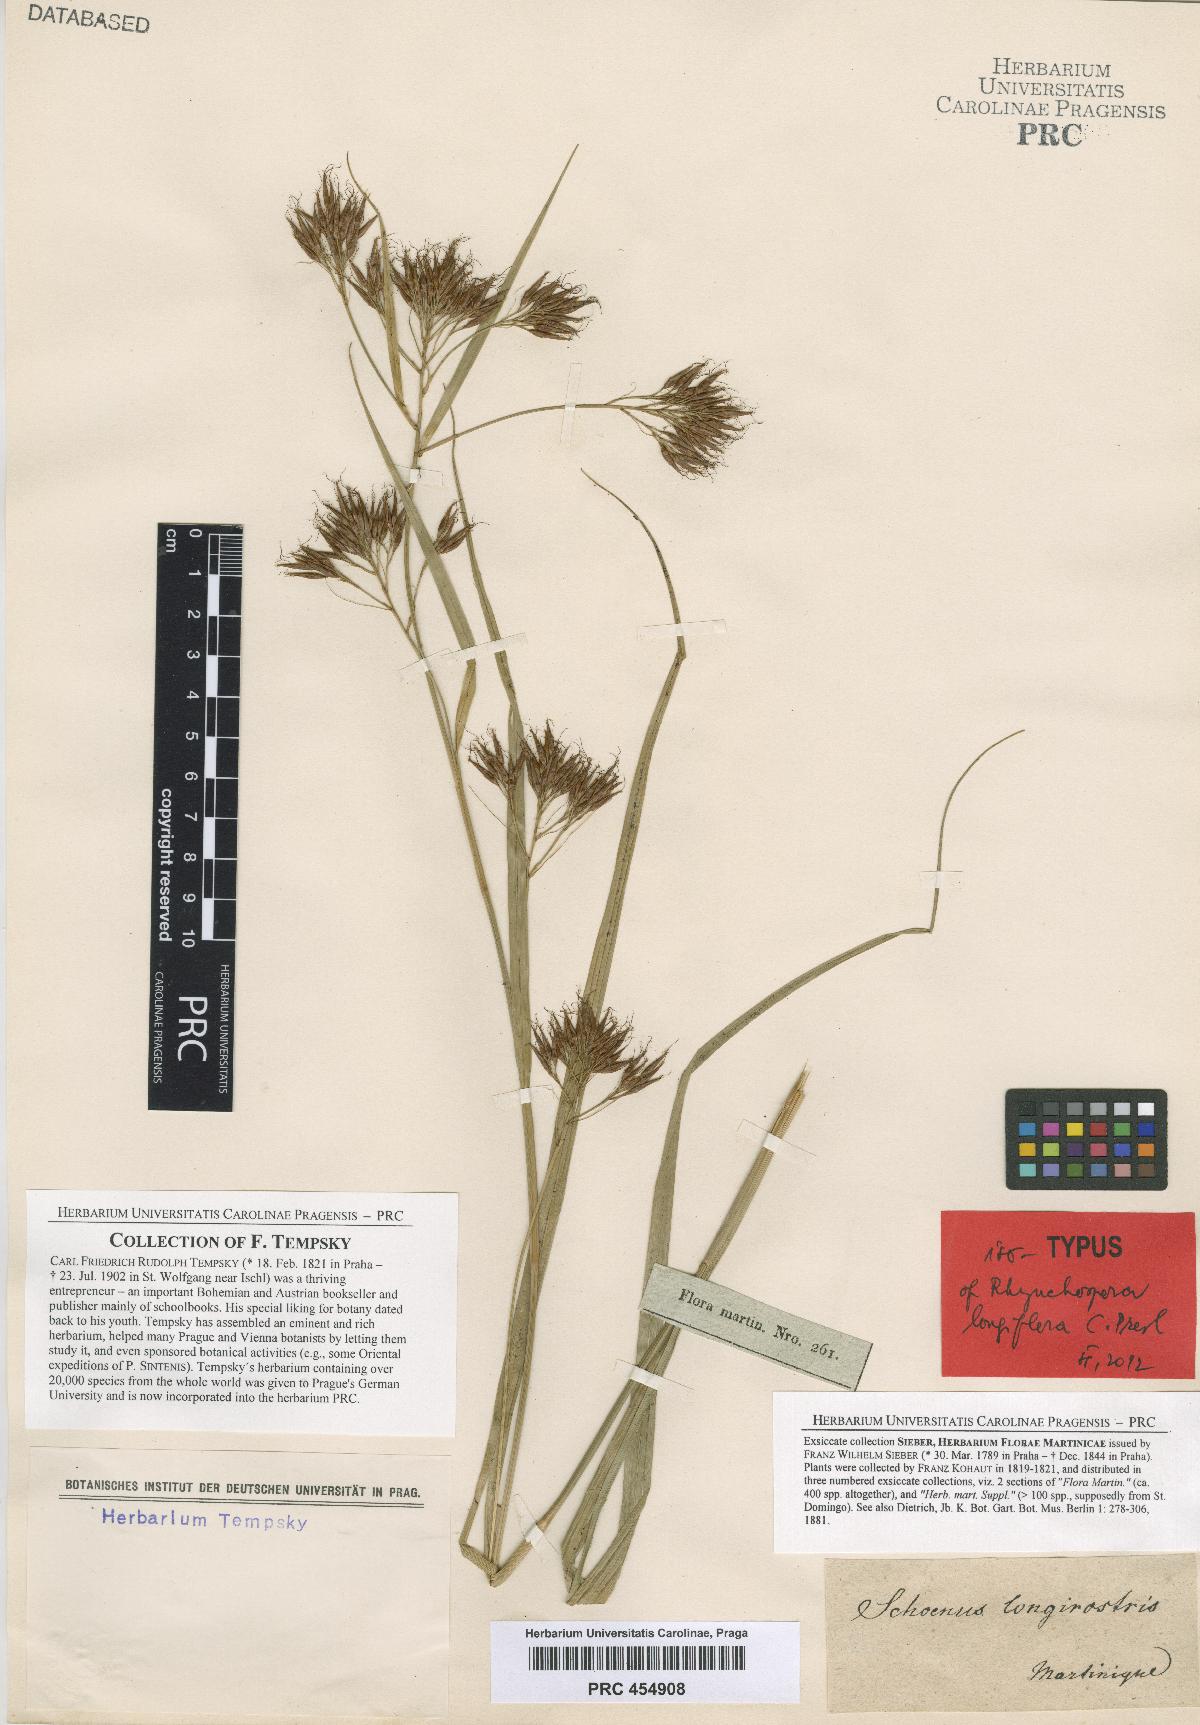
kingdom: Plantae
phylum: Tracheophyta
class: Liliopsida
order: Poales
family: Cyperaceae
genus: Rhynchospora
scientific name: Rhynchospora longiflora
